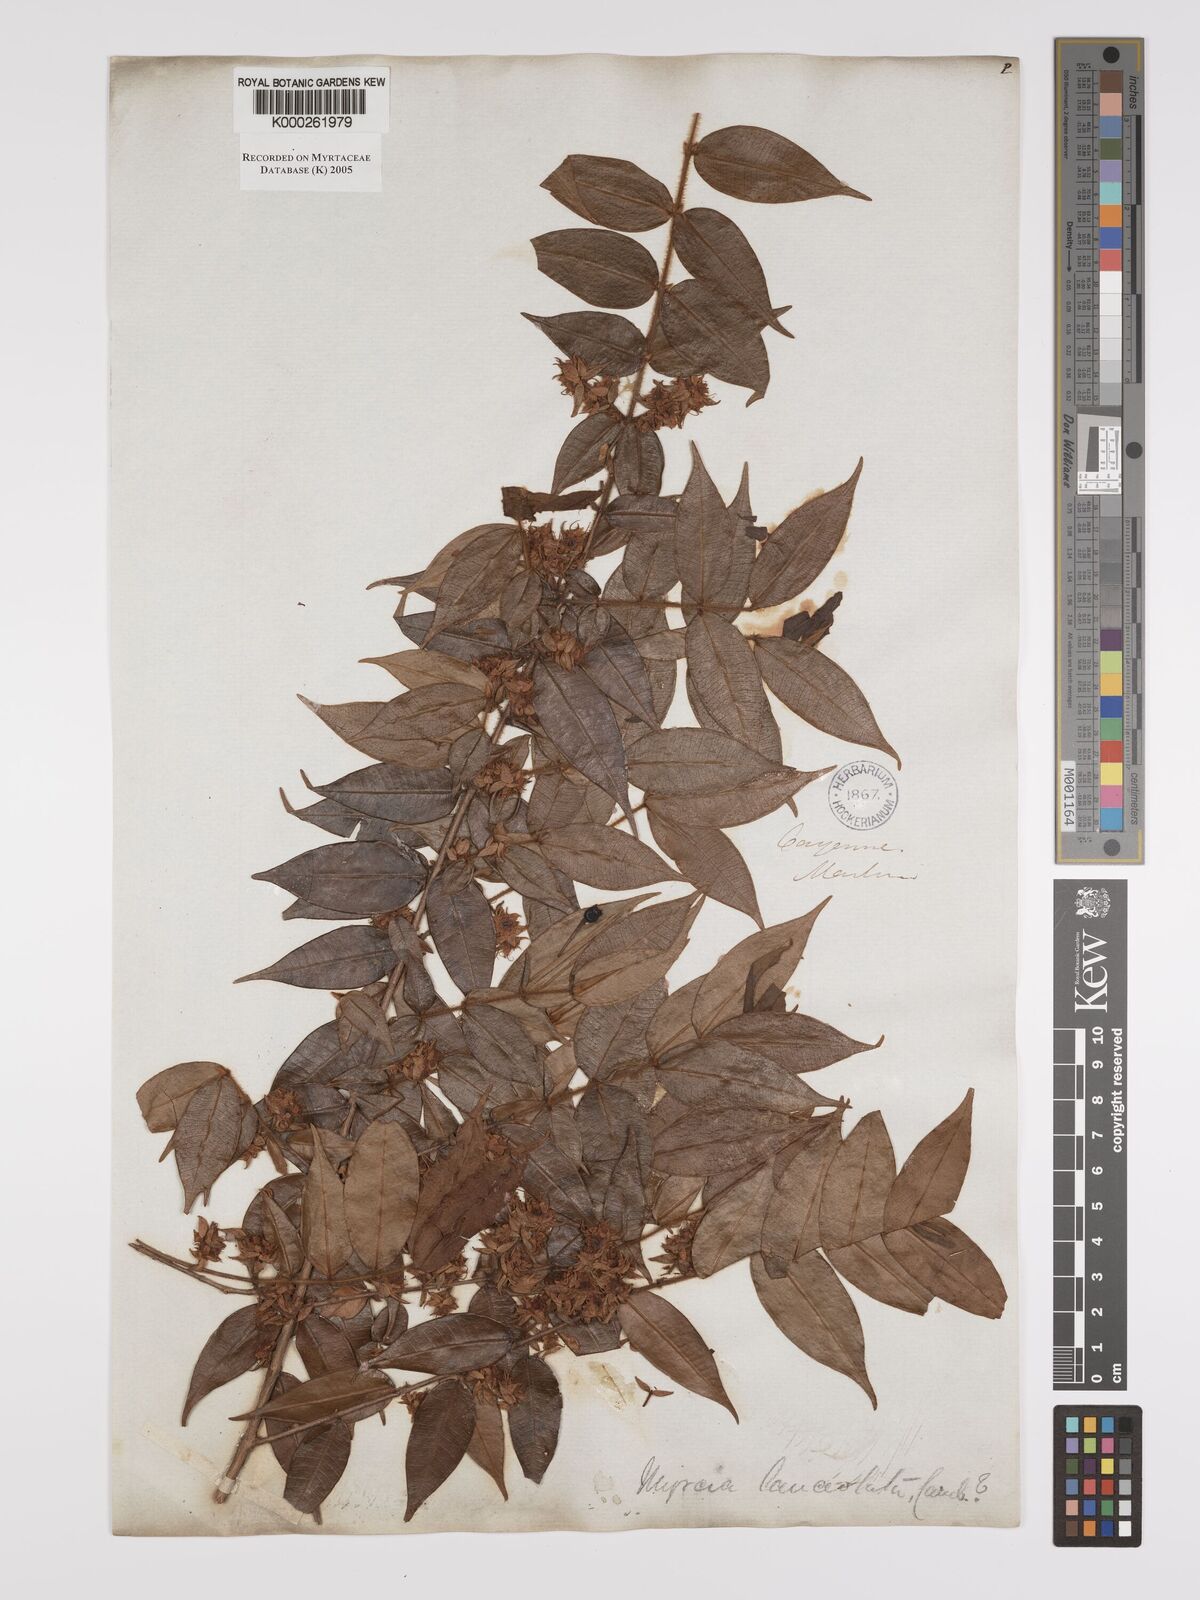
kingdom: Plantae
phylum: Tracheophyta
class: Magnoliopsida
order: Myrtales
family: Myrtaceae
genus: Myrcia
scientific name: Myrcia bracteata
